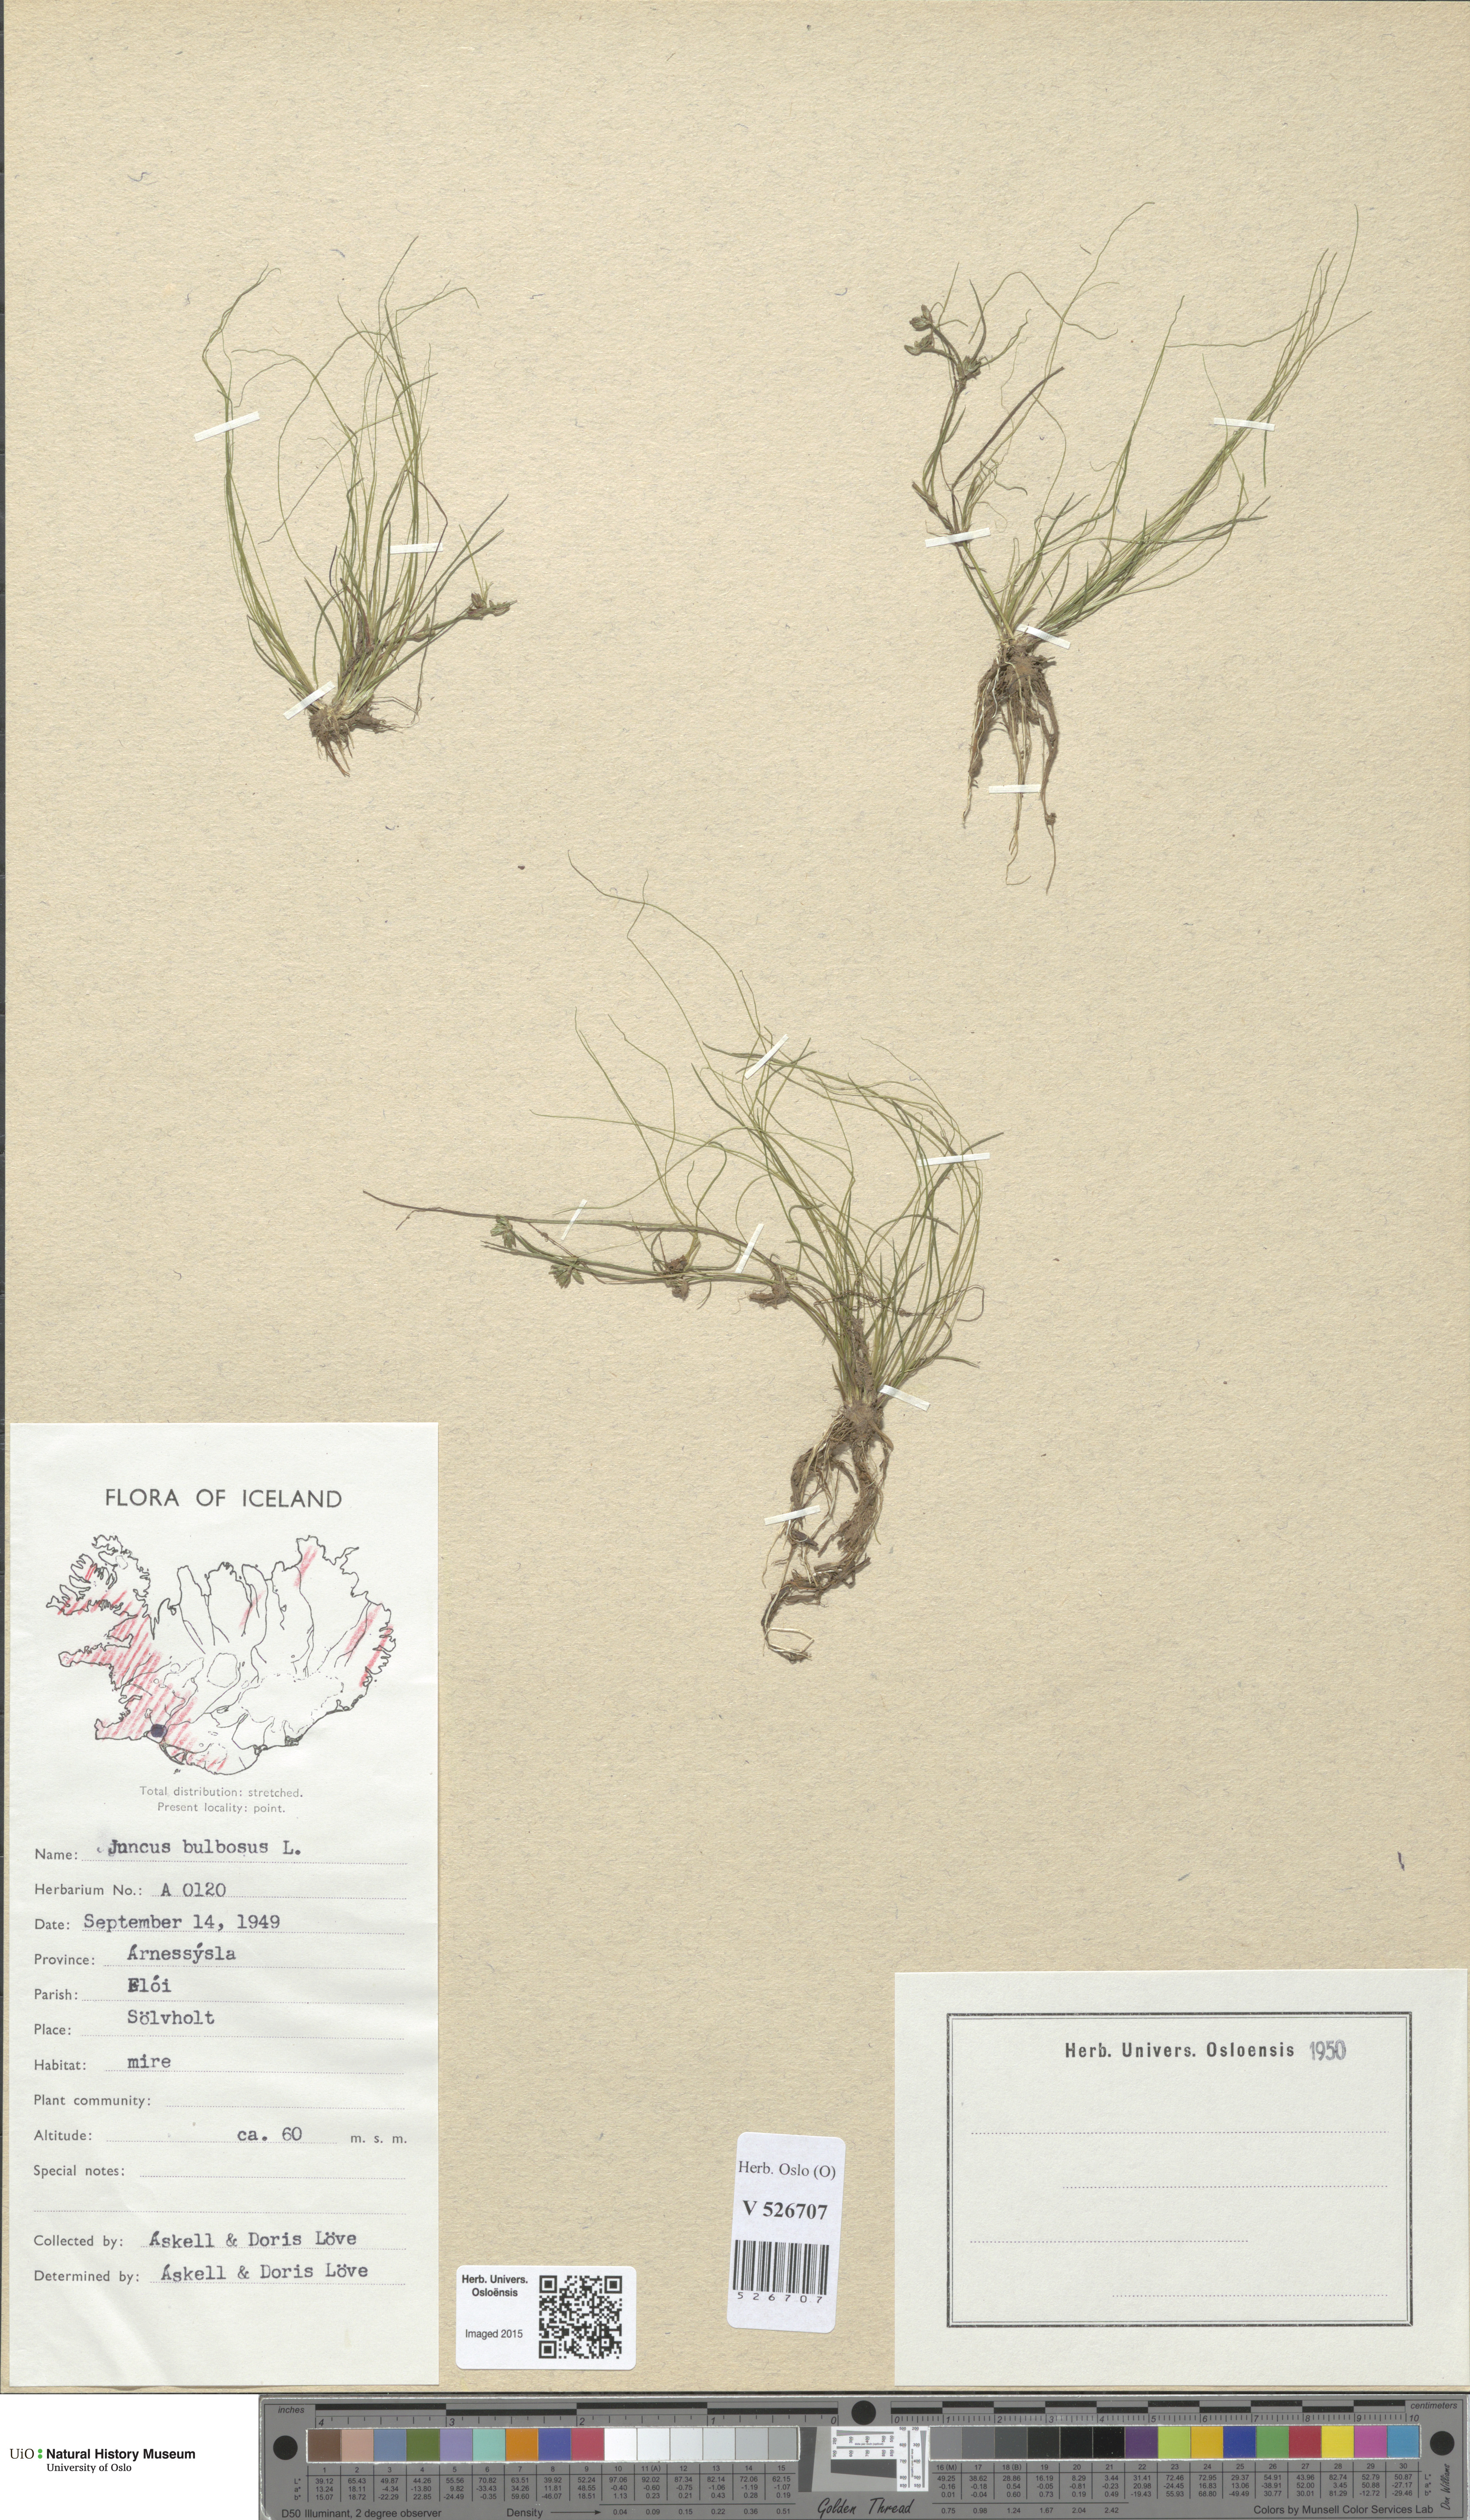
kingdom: Plantae
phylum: Tracheophyta
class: Liliopsida
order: Poales
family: Juncaceae
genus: Juncus
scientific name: Juncus bulbosus
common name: Bulbous rush
